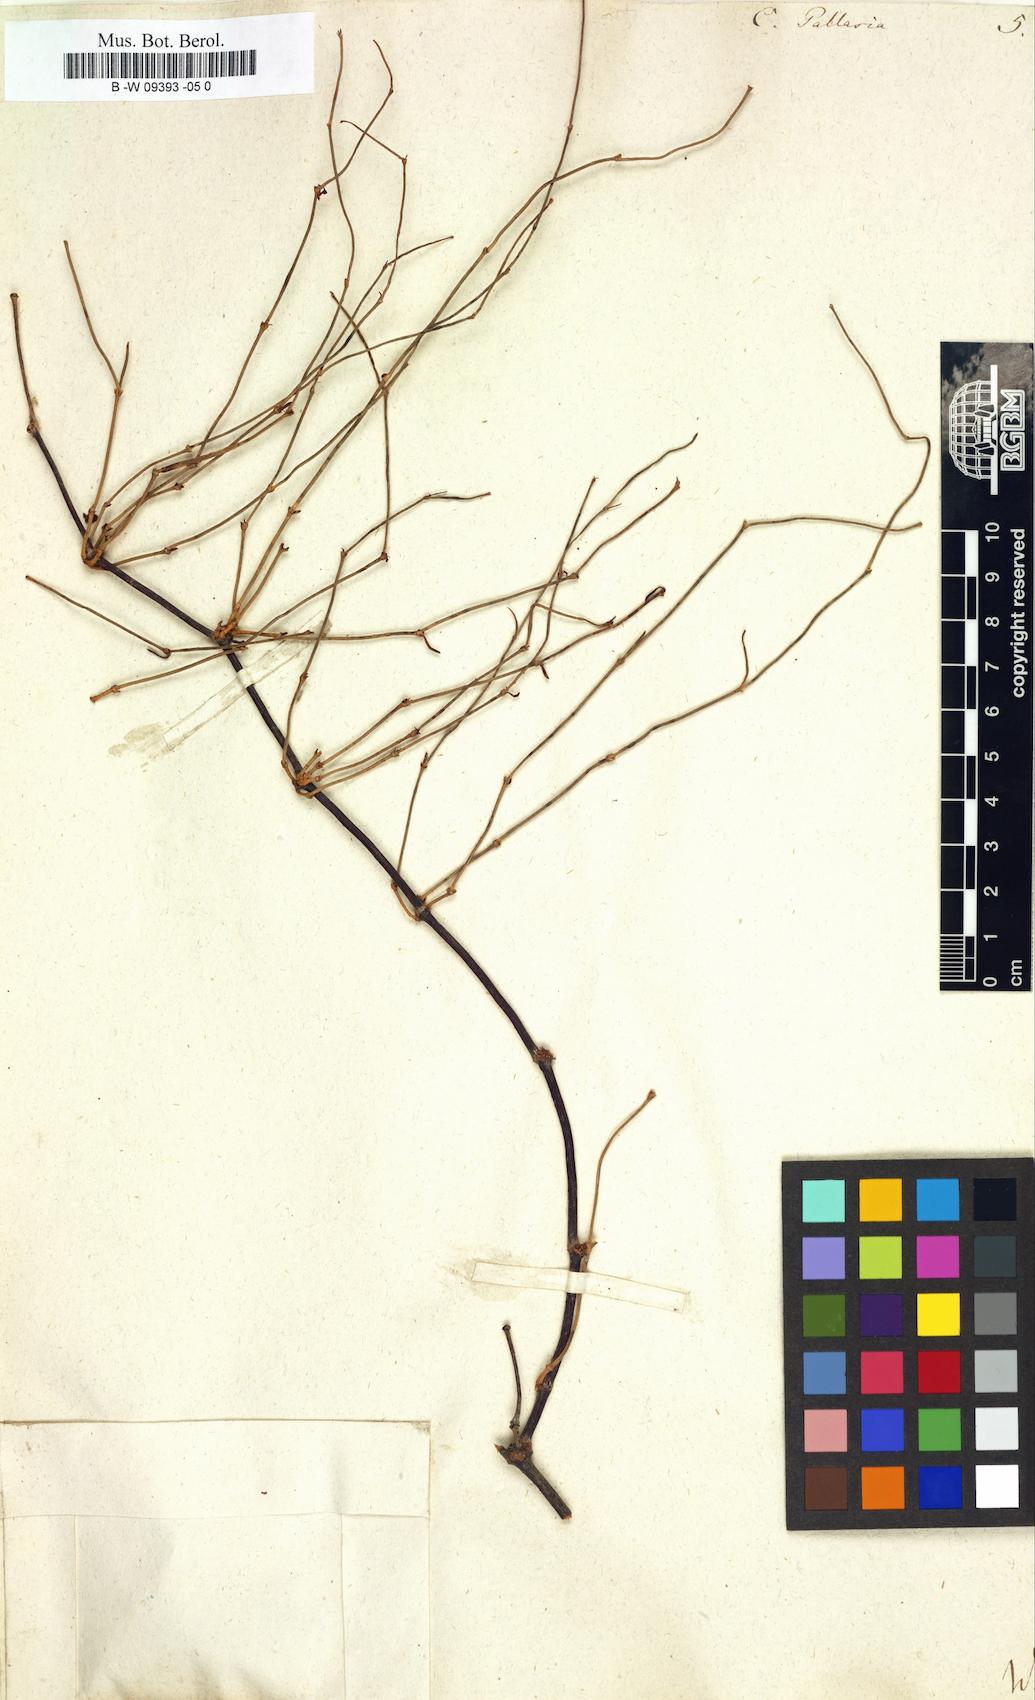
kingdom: Plantae
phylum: Tracheophyta
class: Magnoliopsida
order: Caryophyllales
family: Polygonaceae
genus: Calligonum
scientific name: Calligonum aphyllum
